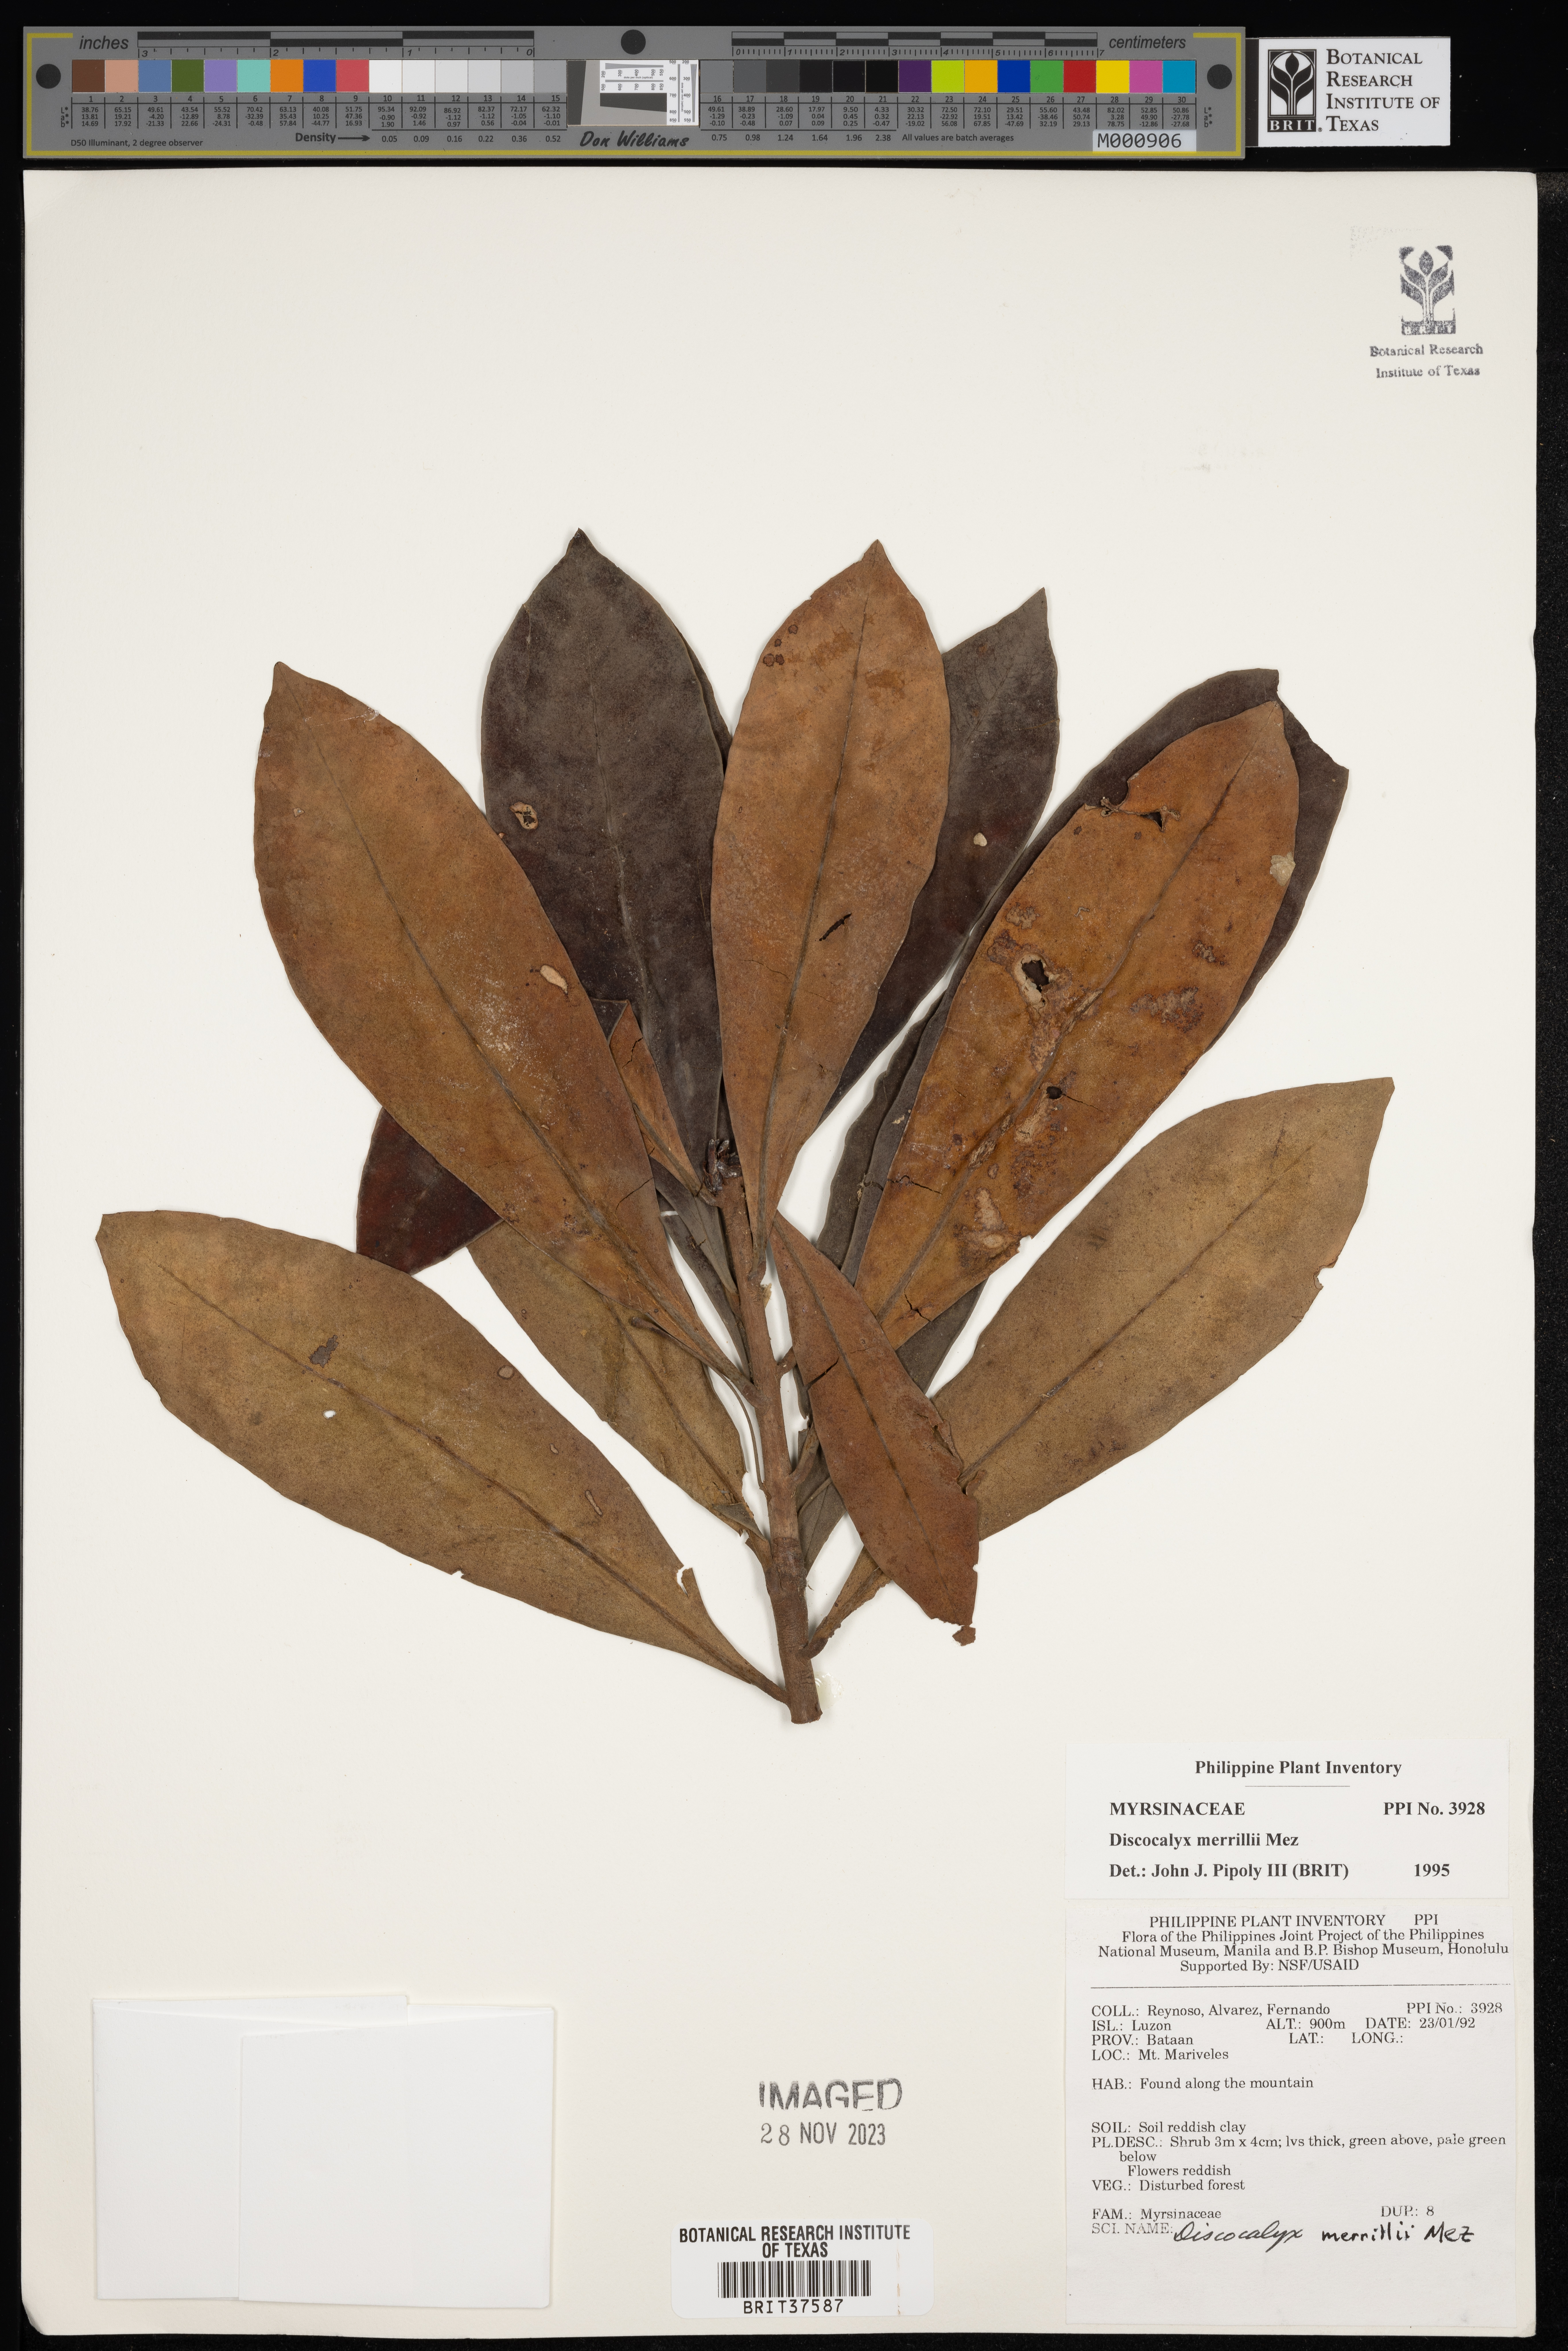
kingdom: Plantae
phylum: Tracheophyta
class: Magnoliopsida
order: Ericales
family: Primulaceae
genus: Discocalyx
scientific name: Discocalyx merrillii
